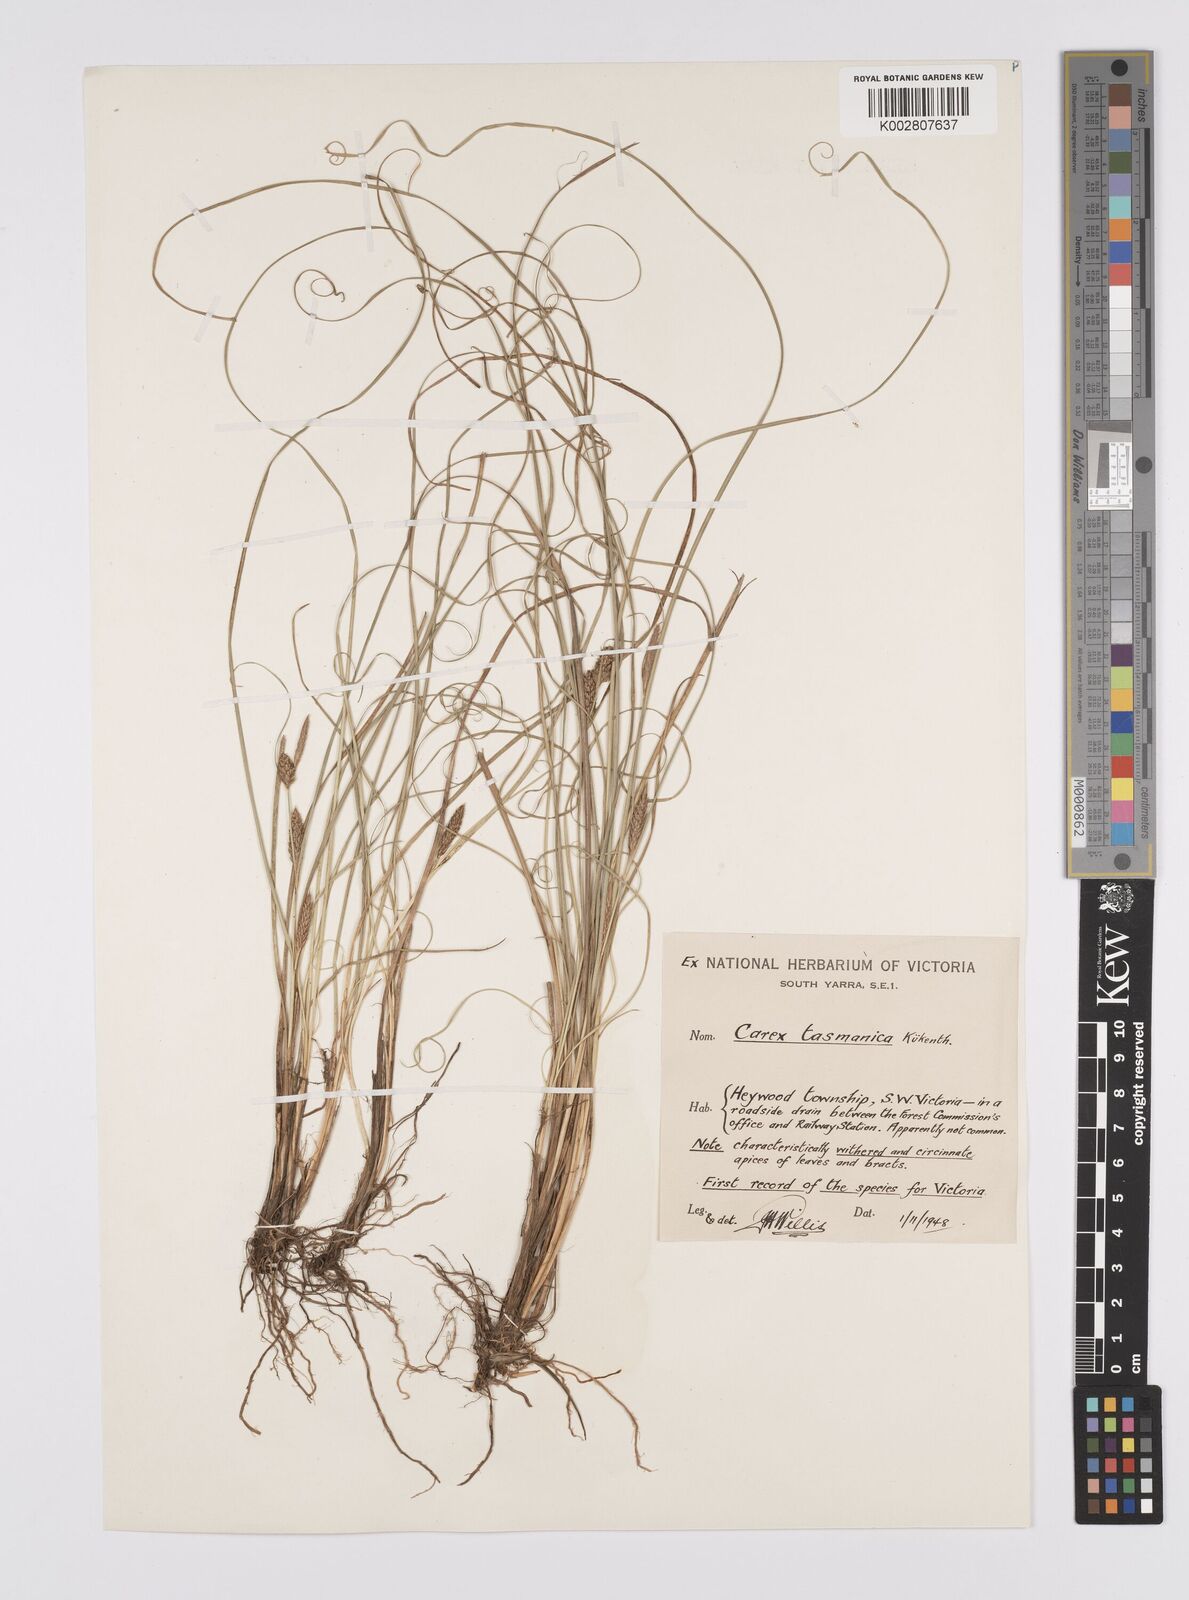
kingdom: Plantae
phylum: Tracheophyta
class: Liliopsida
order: Poales
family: Cyperaceae
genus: Carex
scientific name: Carex tasmanica
